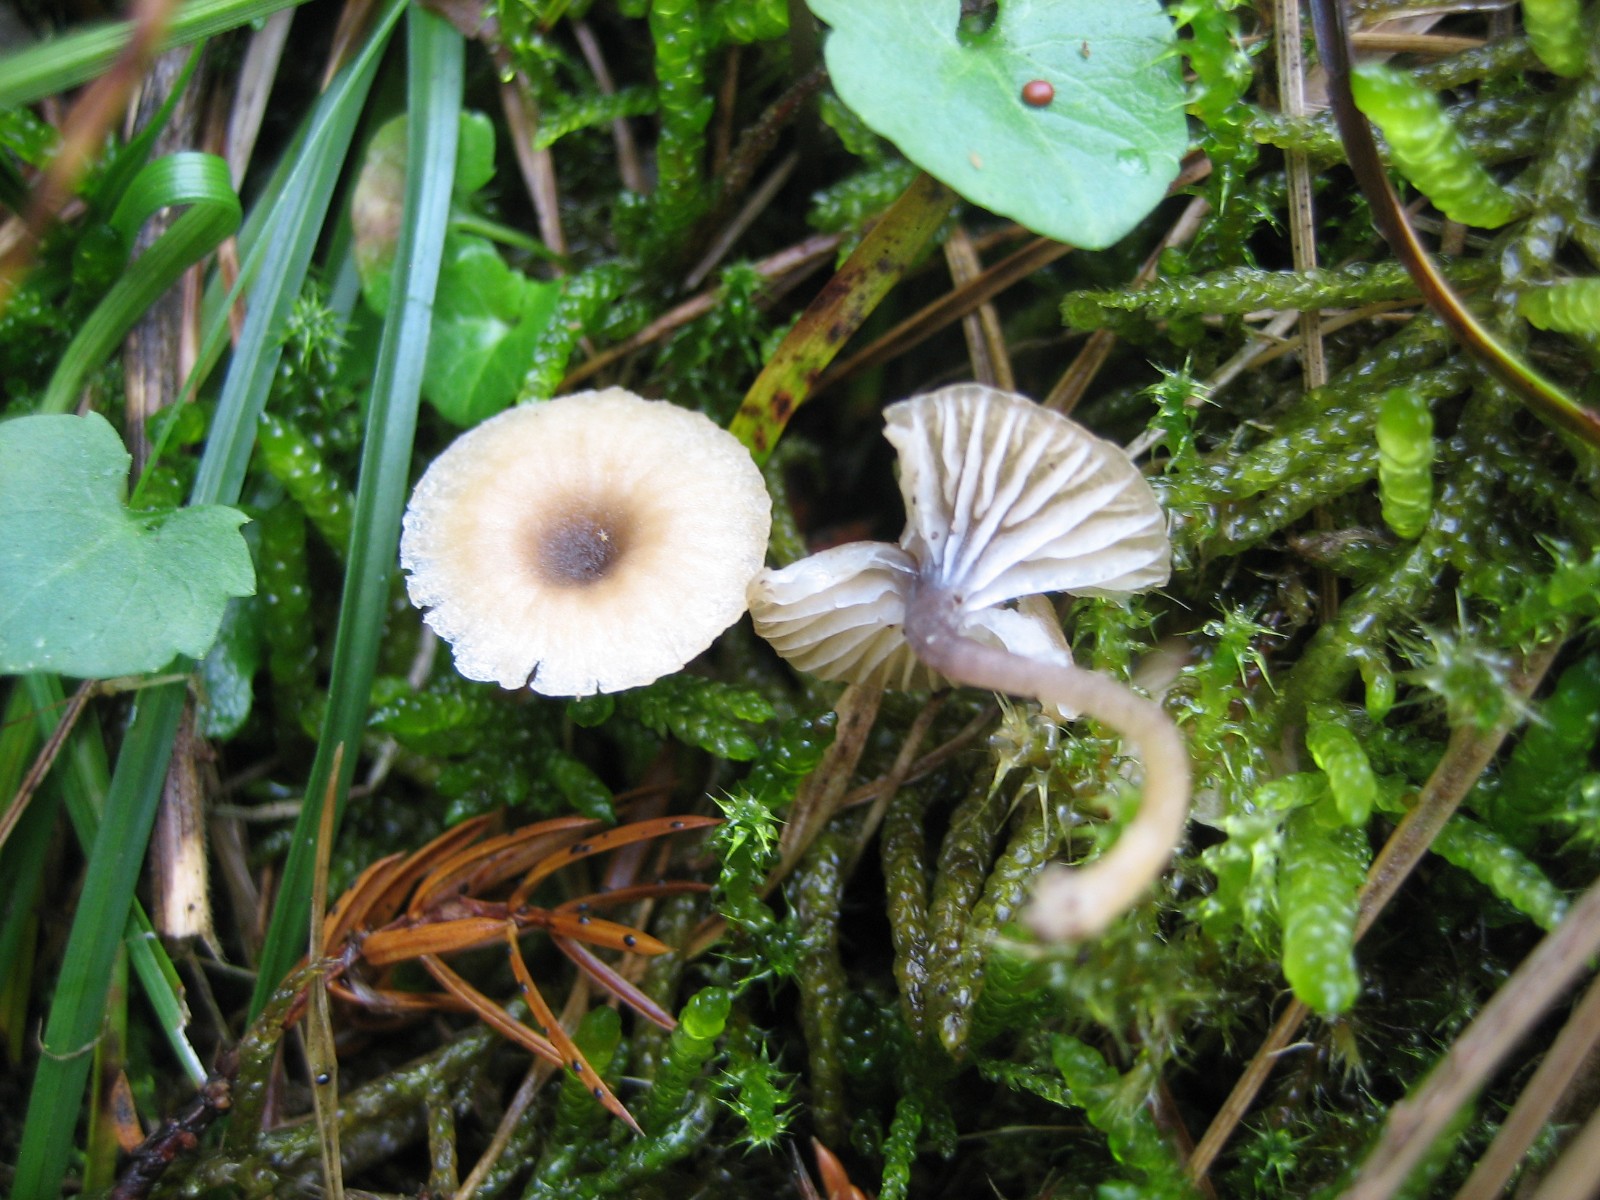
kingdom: Fungi
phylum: Basidiomycota
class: Agaricomycetes
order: Hymenochaetales
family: Rickenellaceae
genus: Rickenella
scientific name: Rickenella swartzii
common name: finstokket mosnavlehat
